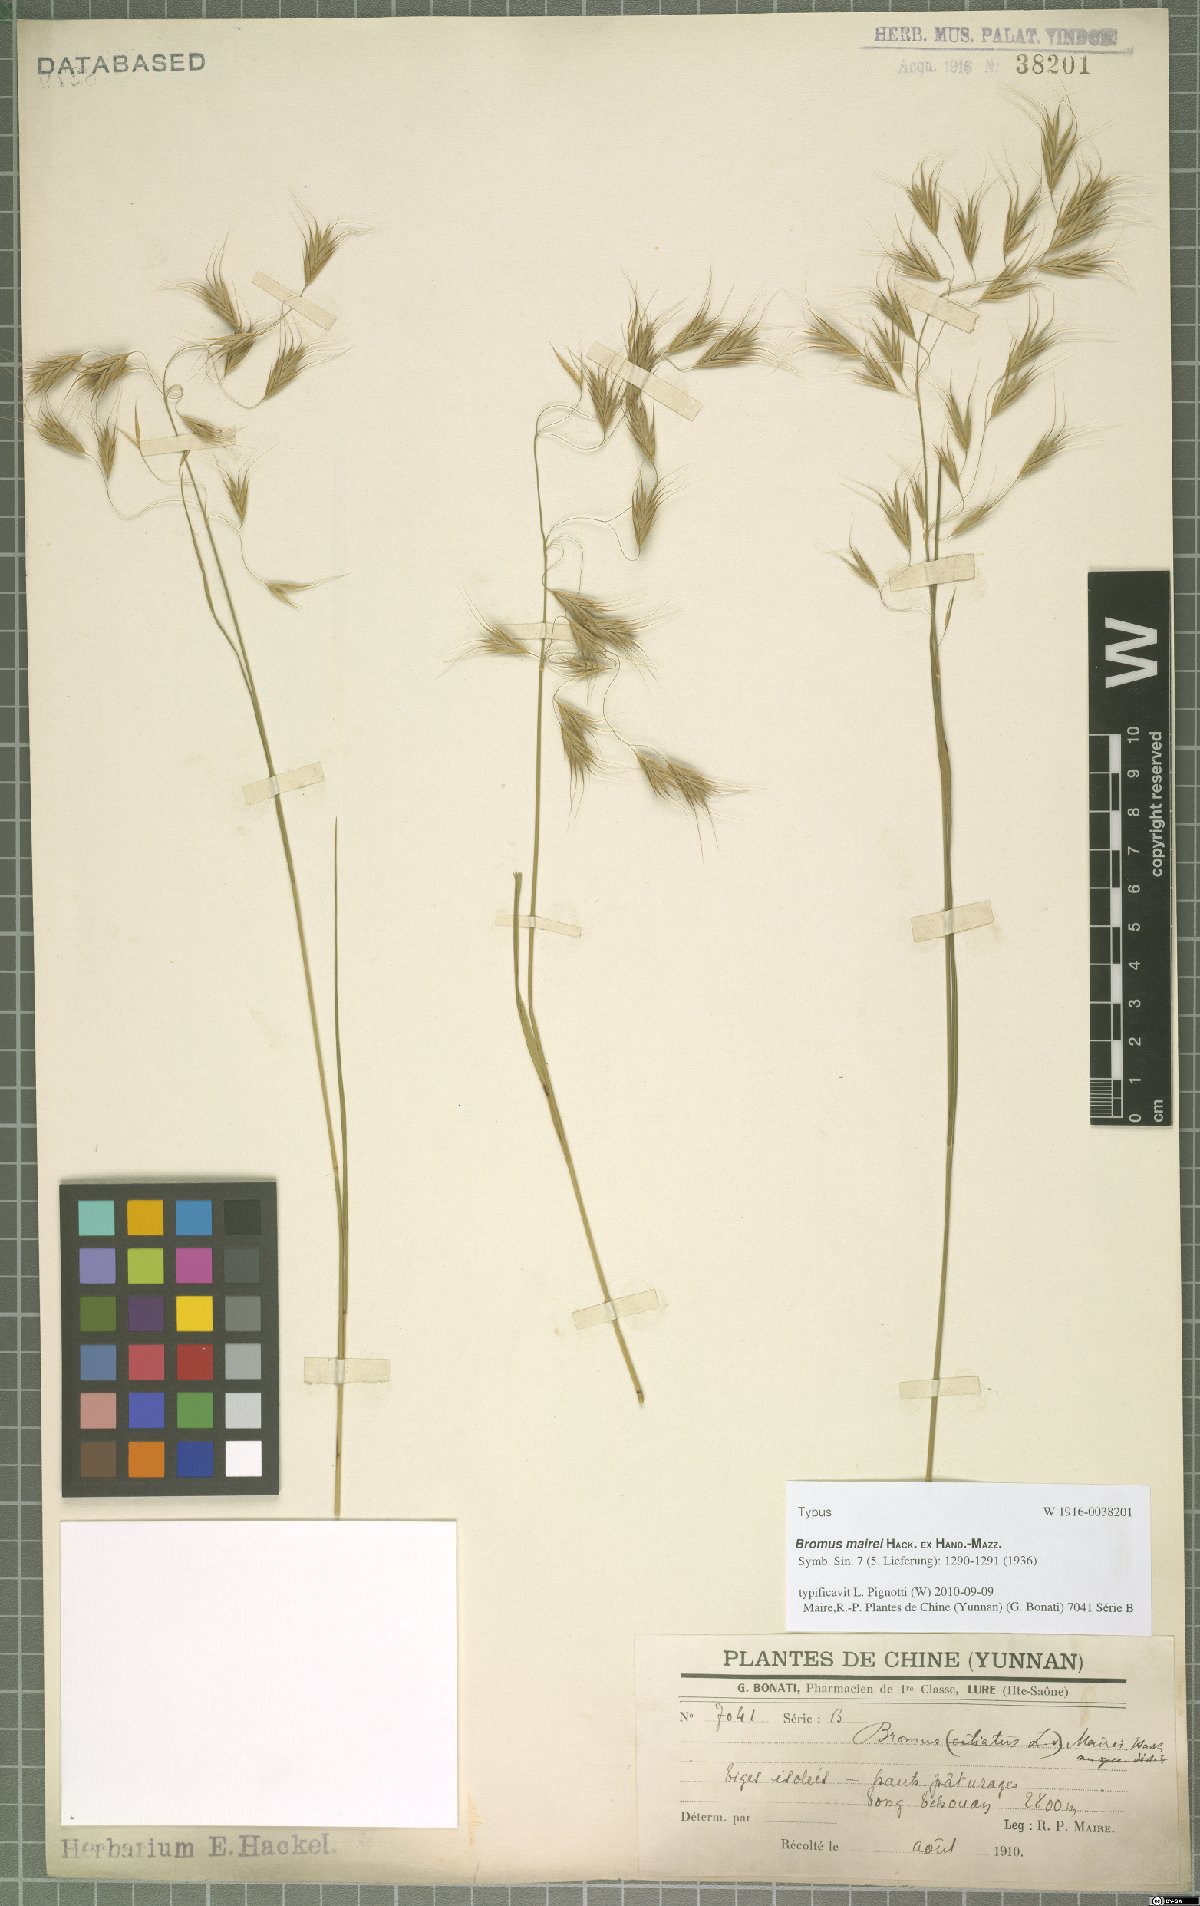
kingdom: Plantae
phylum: Tracheophyta
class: Liliopsida
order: Poales
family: Poaceae
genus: Bromus
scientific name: Bromus mairei
